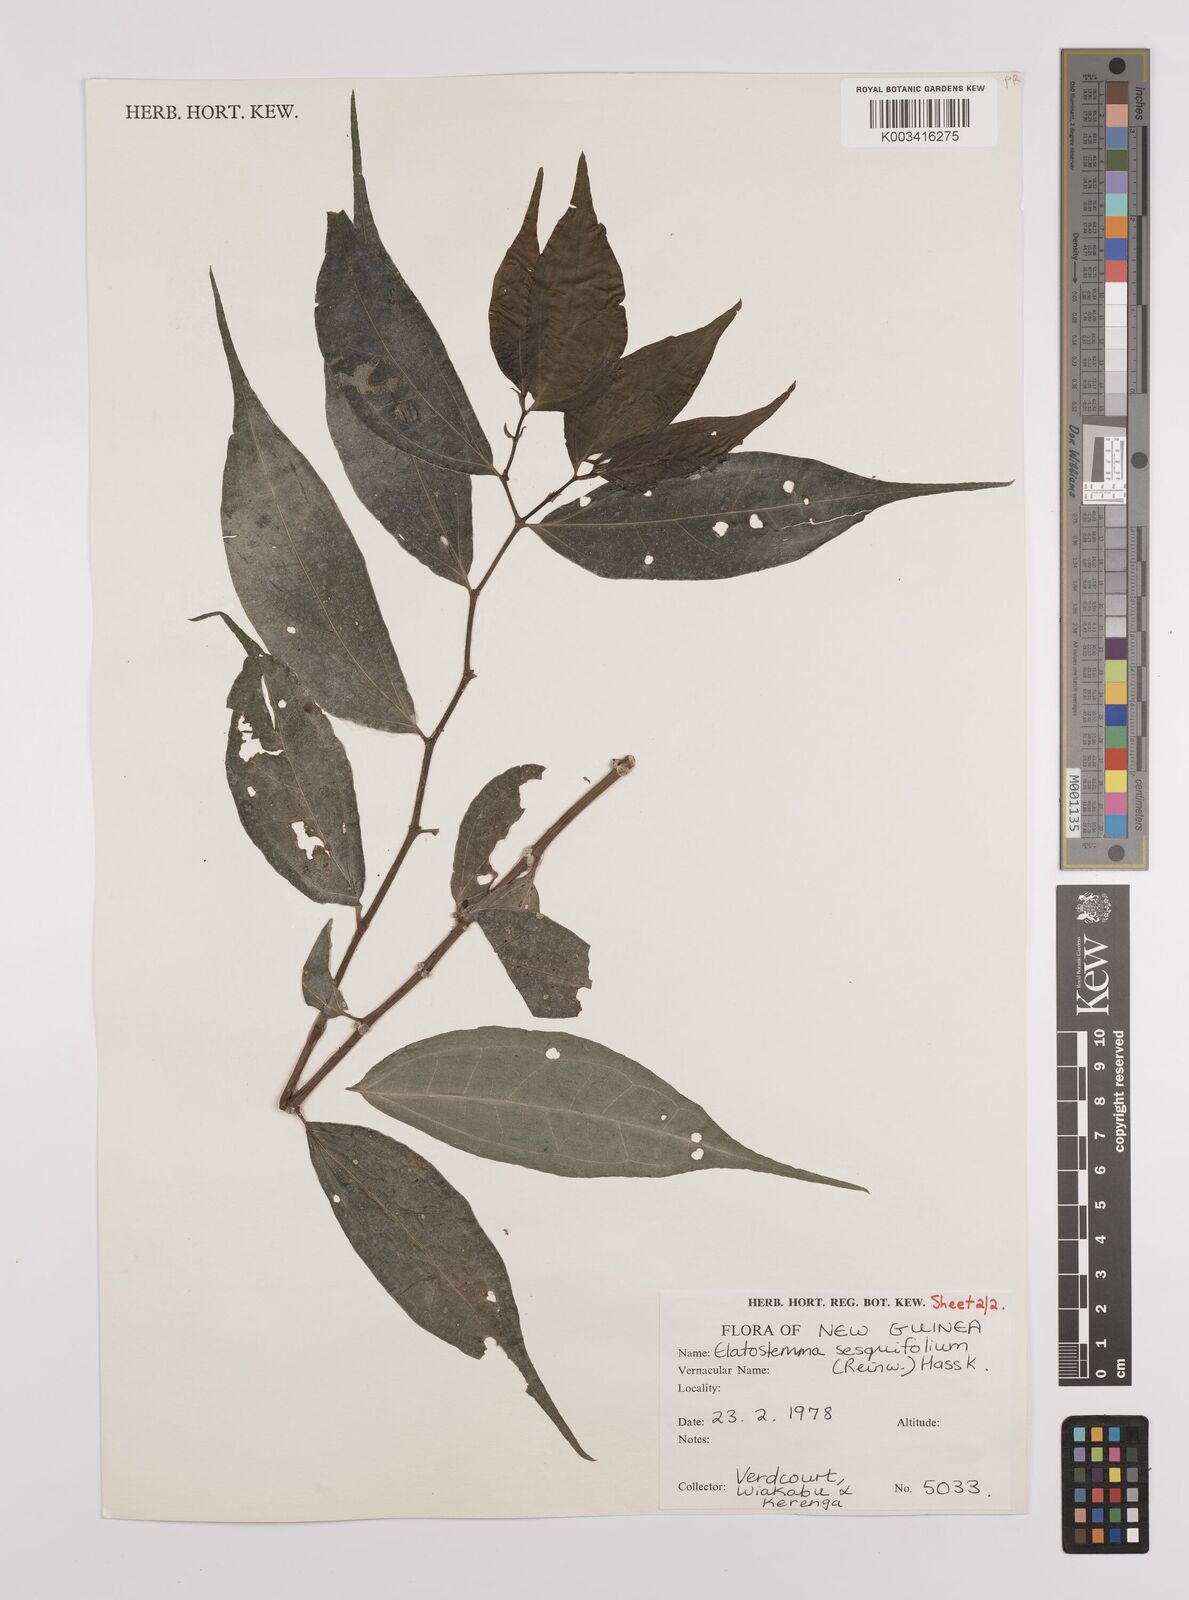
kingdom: Plantae
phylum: Tracheophyta
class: Magnoliopsida
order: Rosales
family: Urticaceae
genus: Elatostema
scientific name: Elatostema integrifolium
